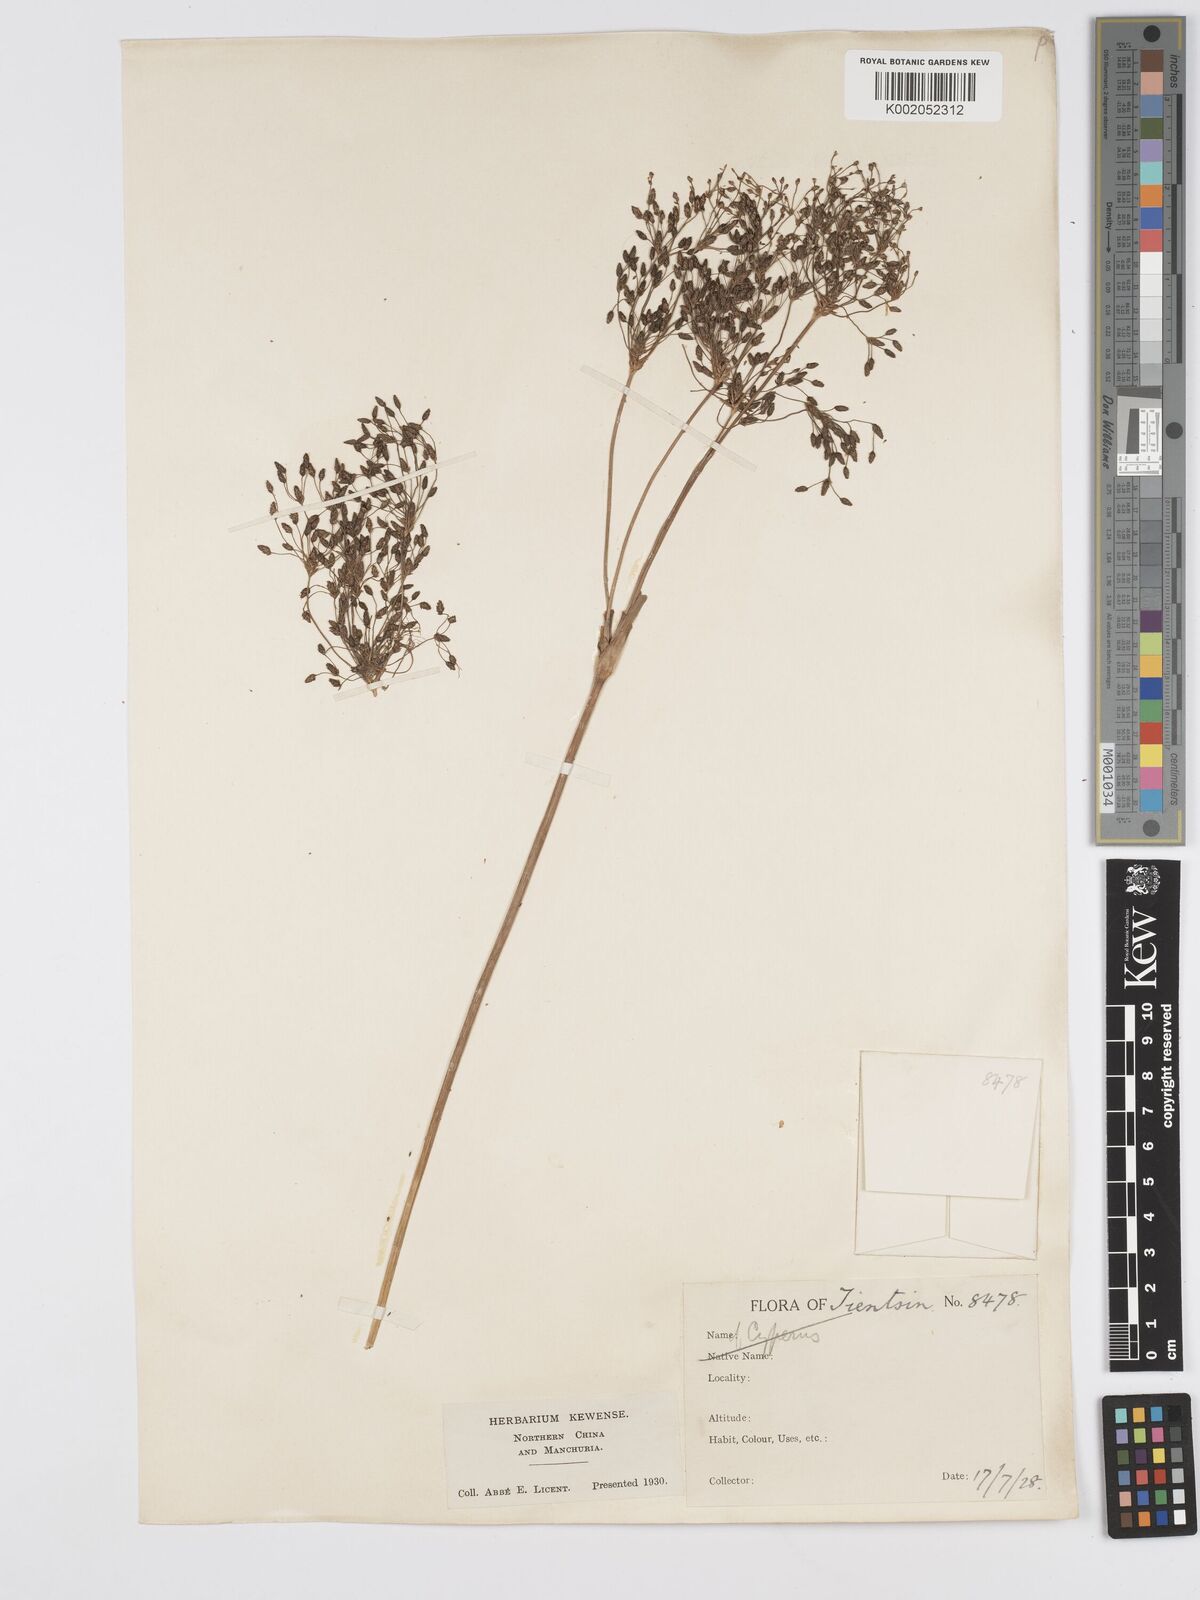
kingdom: Plantae
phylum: Tracheophyta
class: Liliopsida
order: Poales
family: Cyperaceae
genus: Scirpus
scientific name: Scirpus cyperinus
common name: Black-sheathed bulrush
